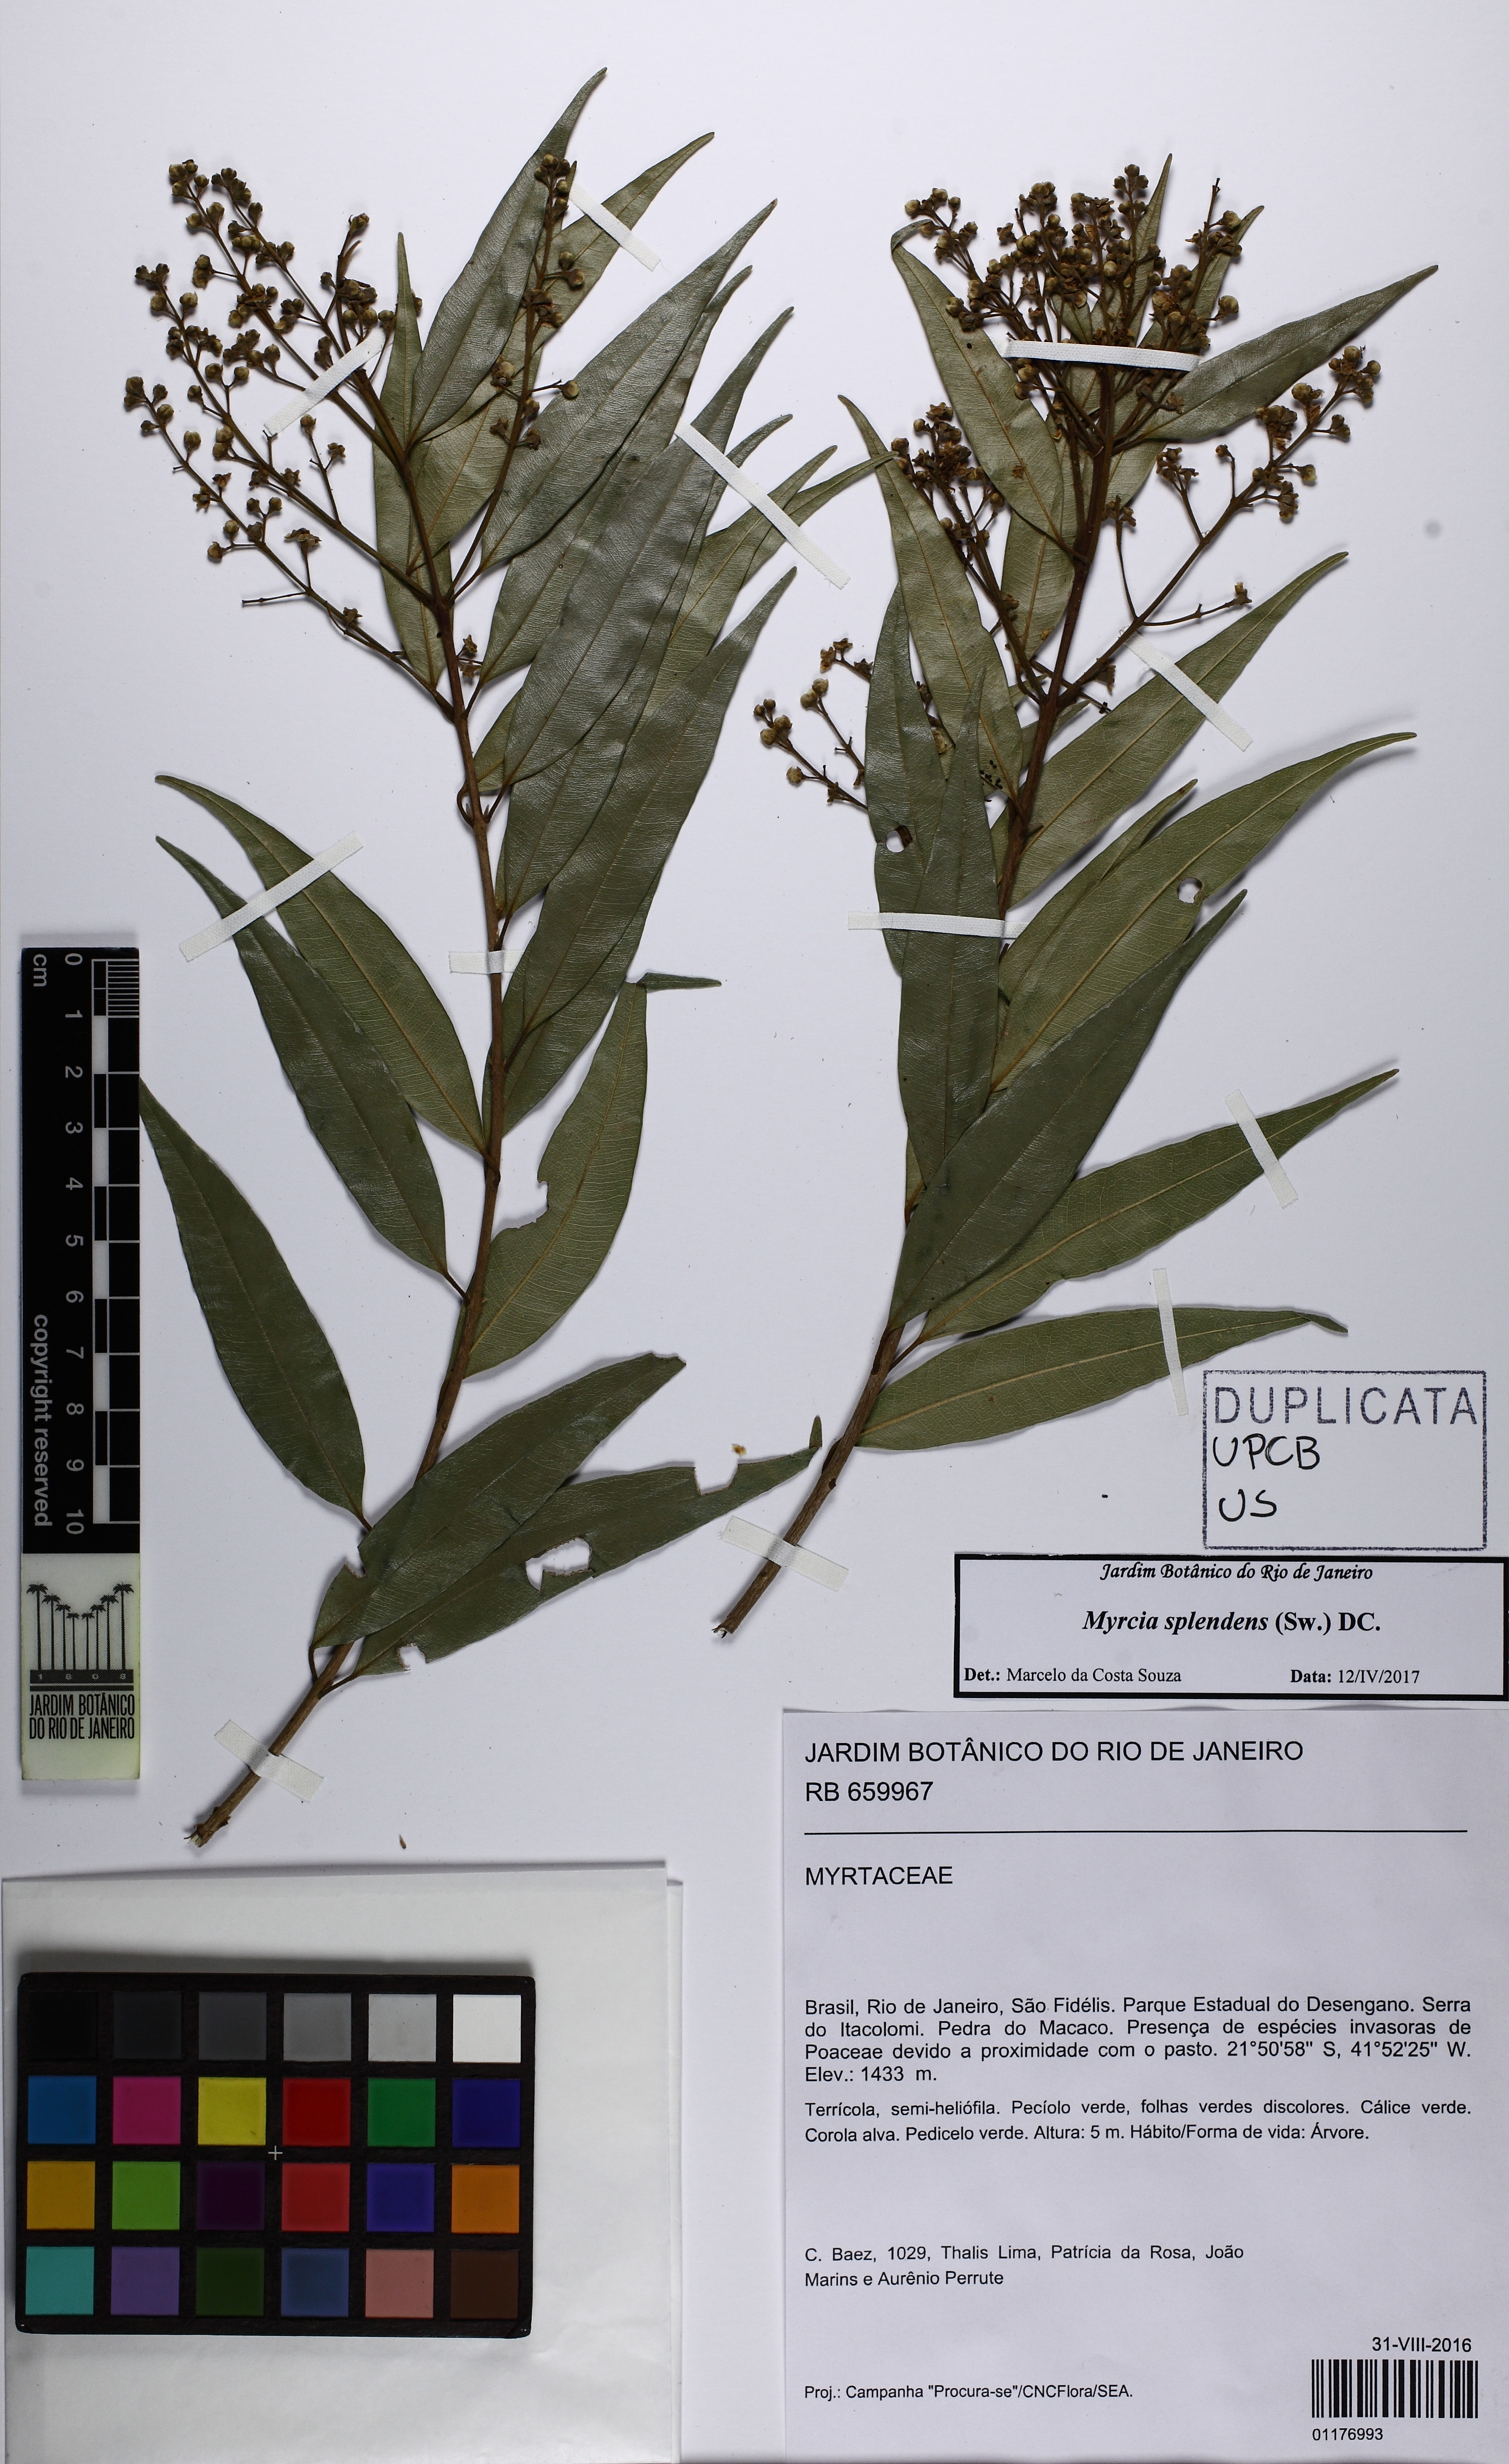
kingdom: Plantae
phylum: Tracheophyta
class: Magnoliopsida
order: Myrtales
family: Myrtaceae
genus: Myrcia
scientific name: Myrcia splendens
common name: Surinam cherry
